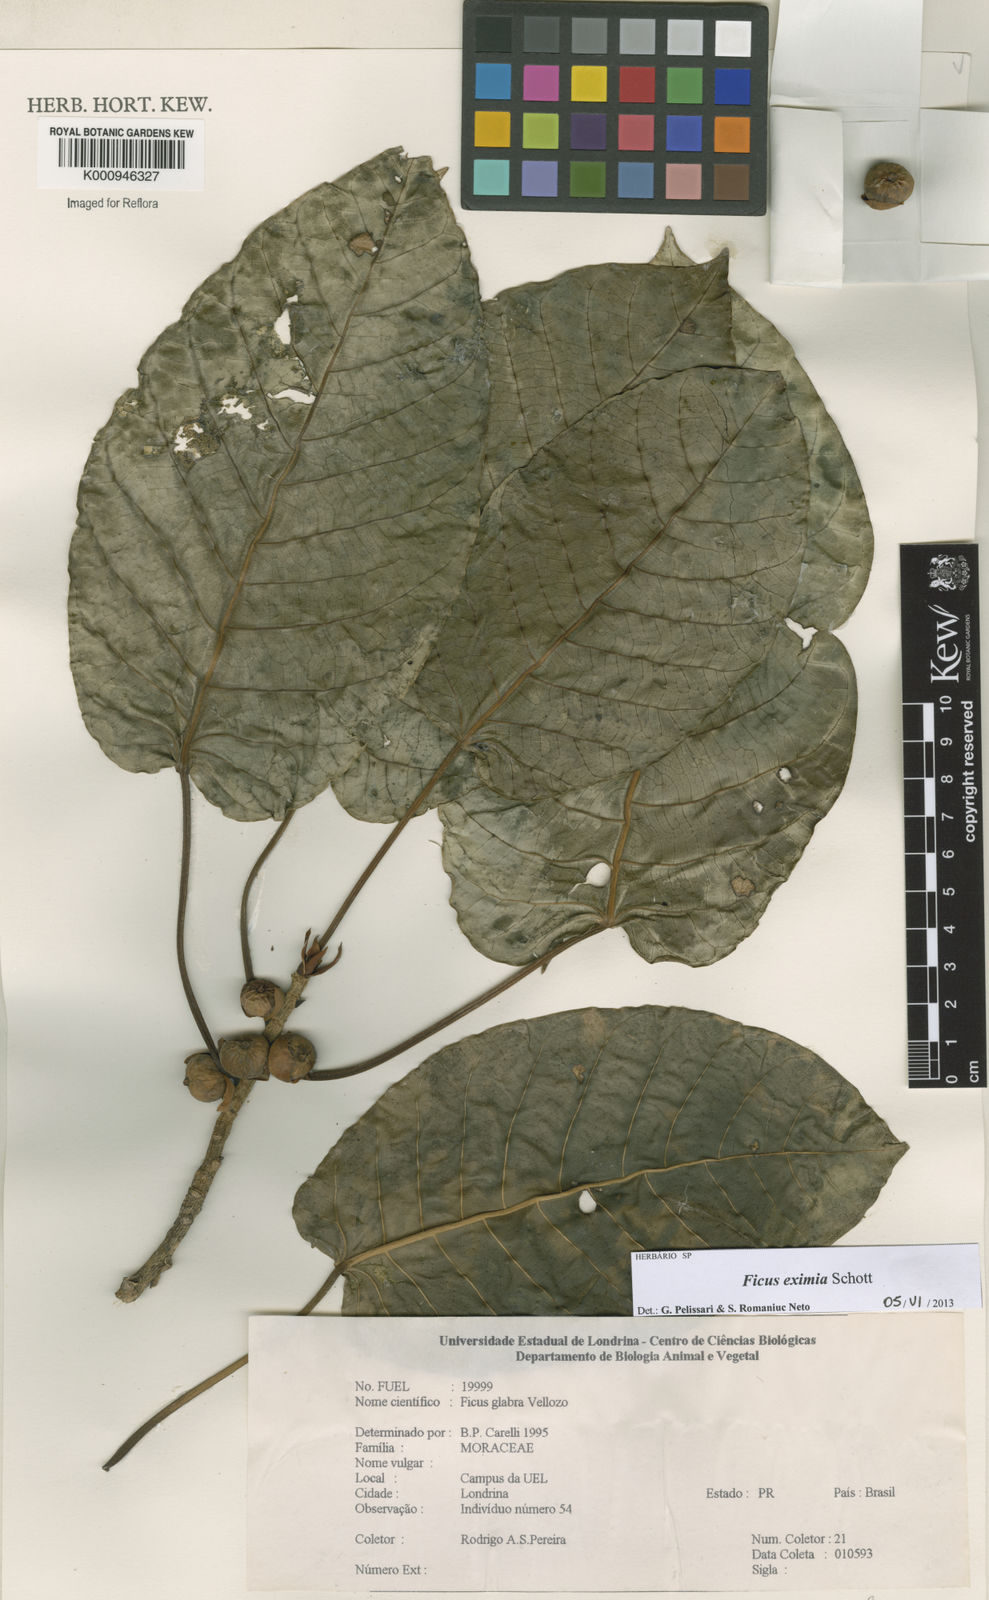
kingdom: Plantae
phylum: Tracheophyta
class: Magnoliopsida
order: Rosales
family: Moraceae
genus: Ficus
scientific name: Ficus eximia
